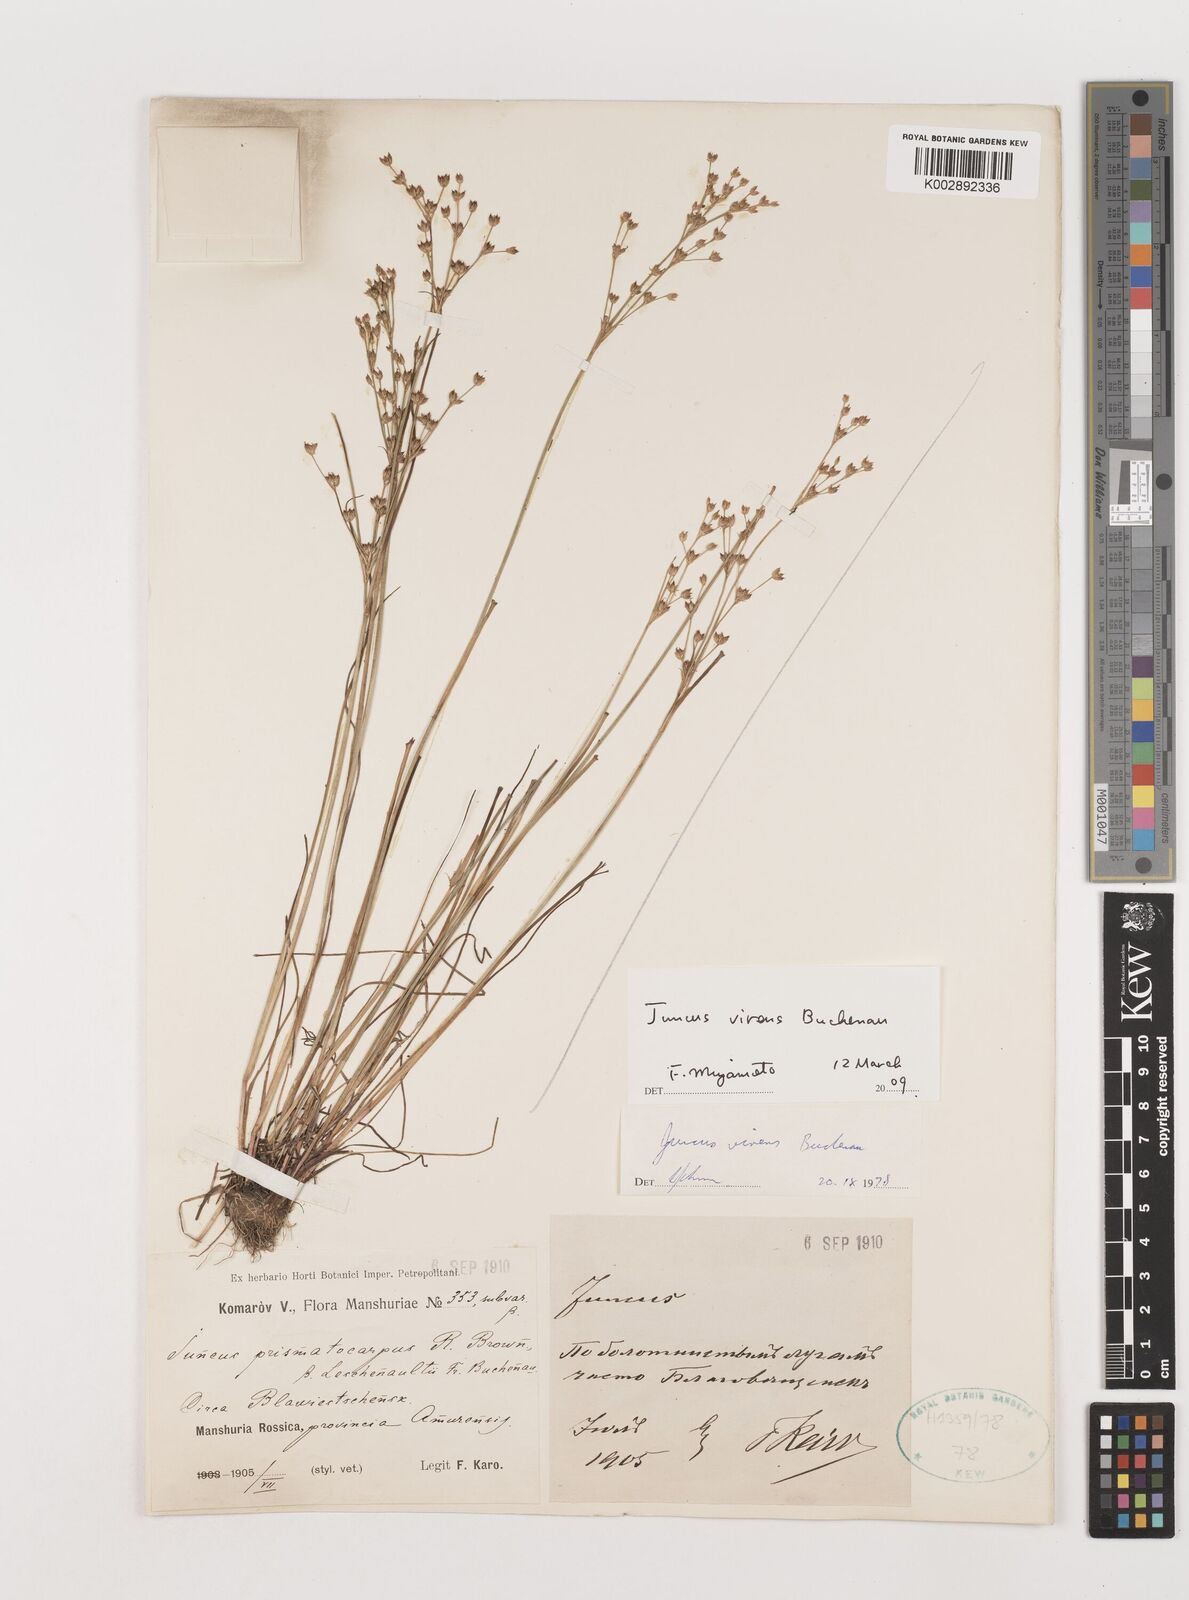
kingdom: Plantae
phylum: Tracheophyta
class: Liliopsida
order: Poales
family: Juncaceae
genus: Juncus
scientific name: Juncus virens
